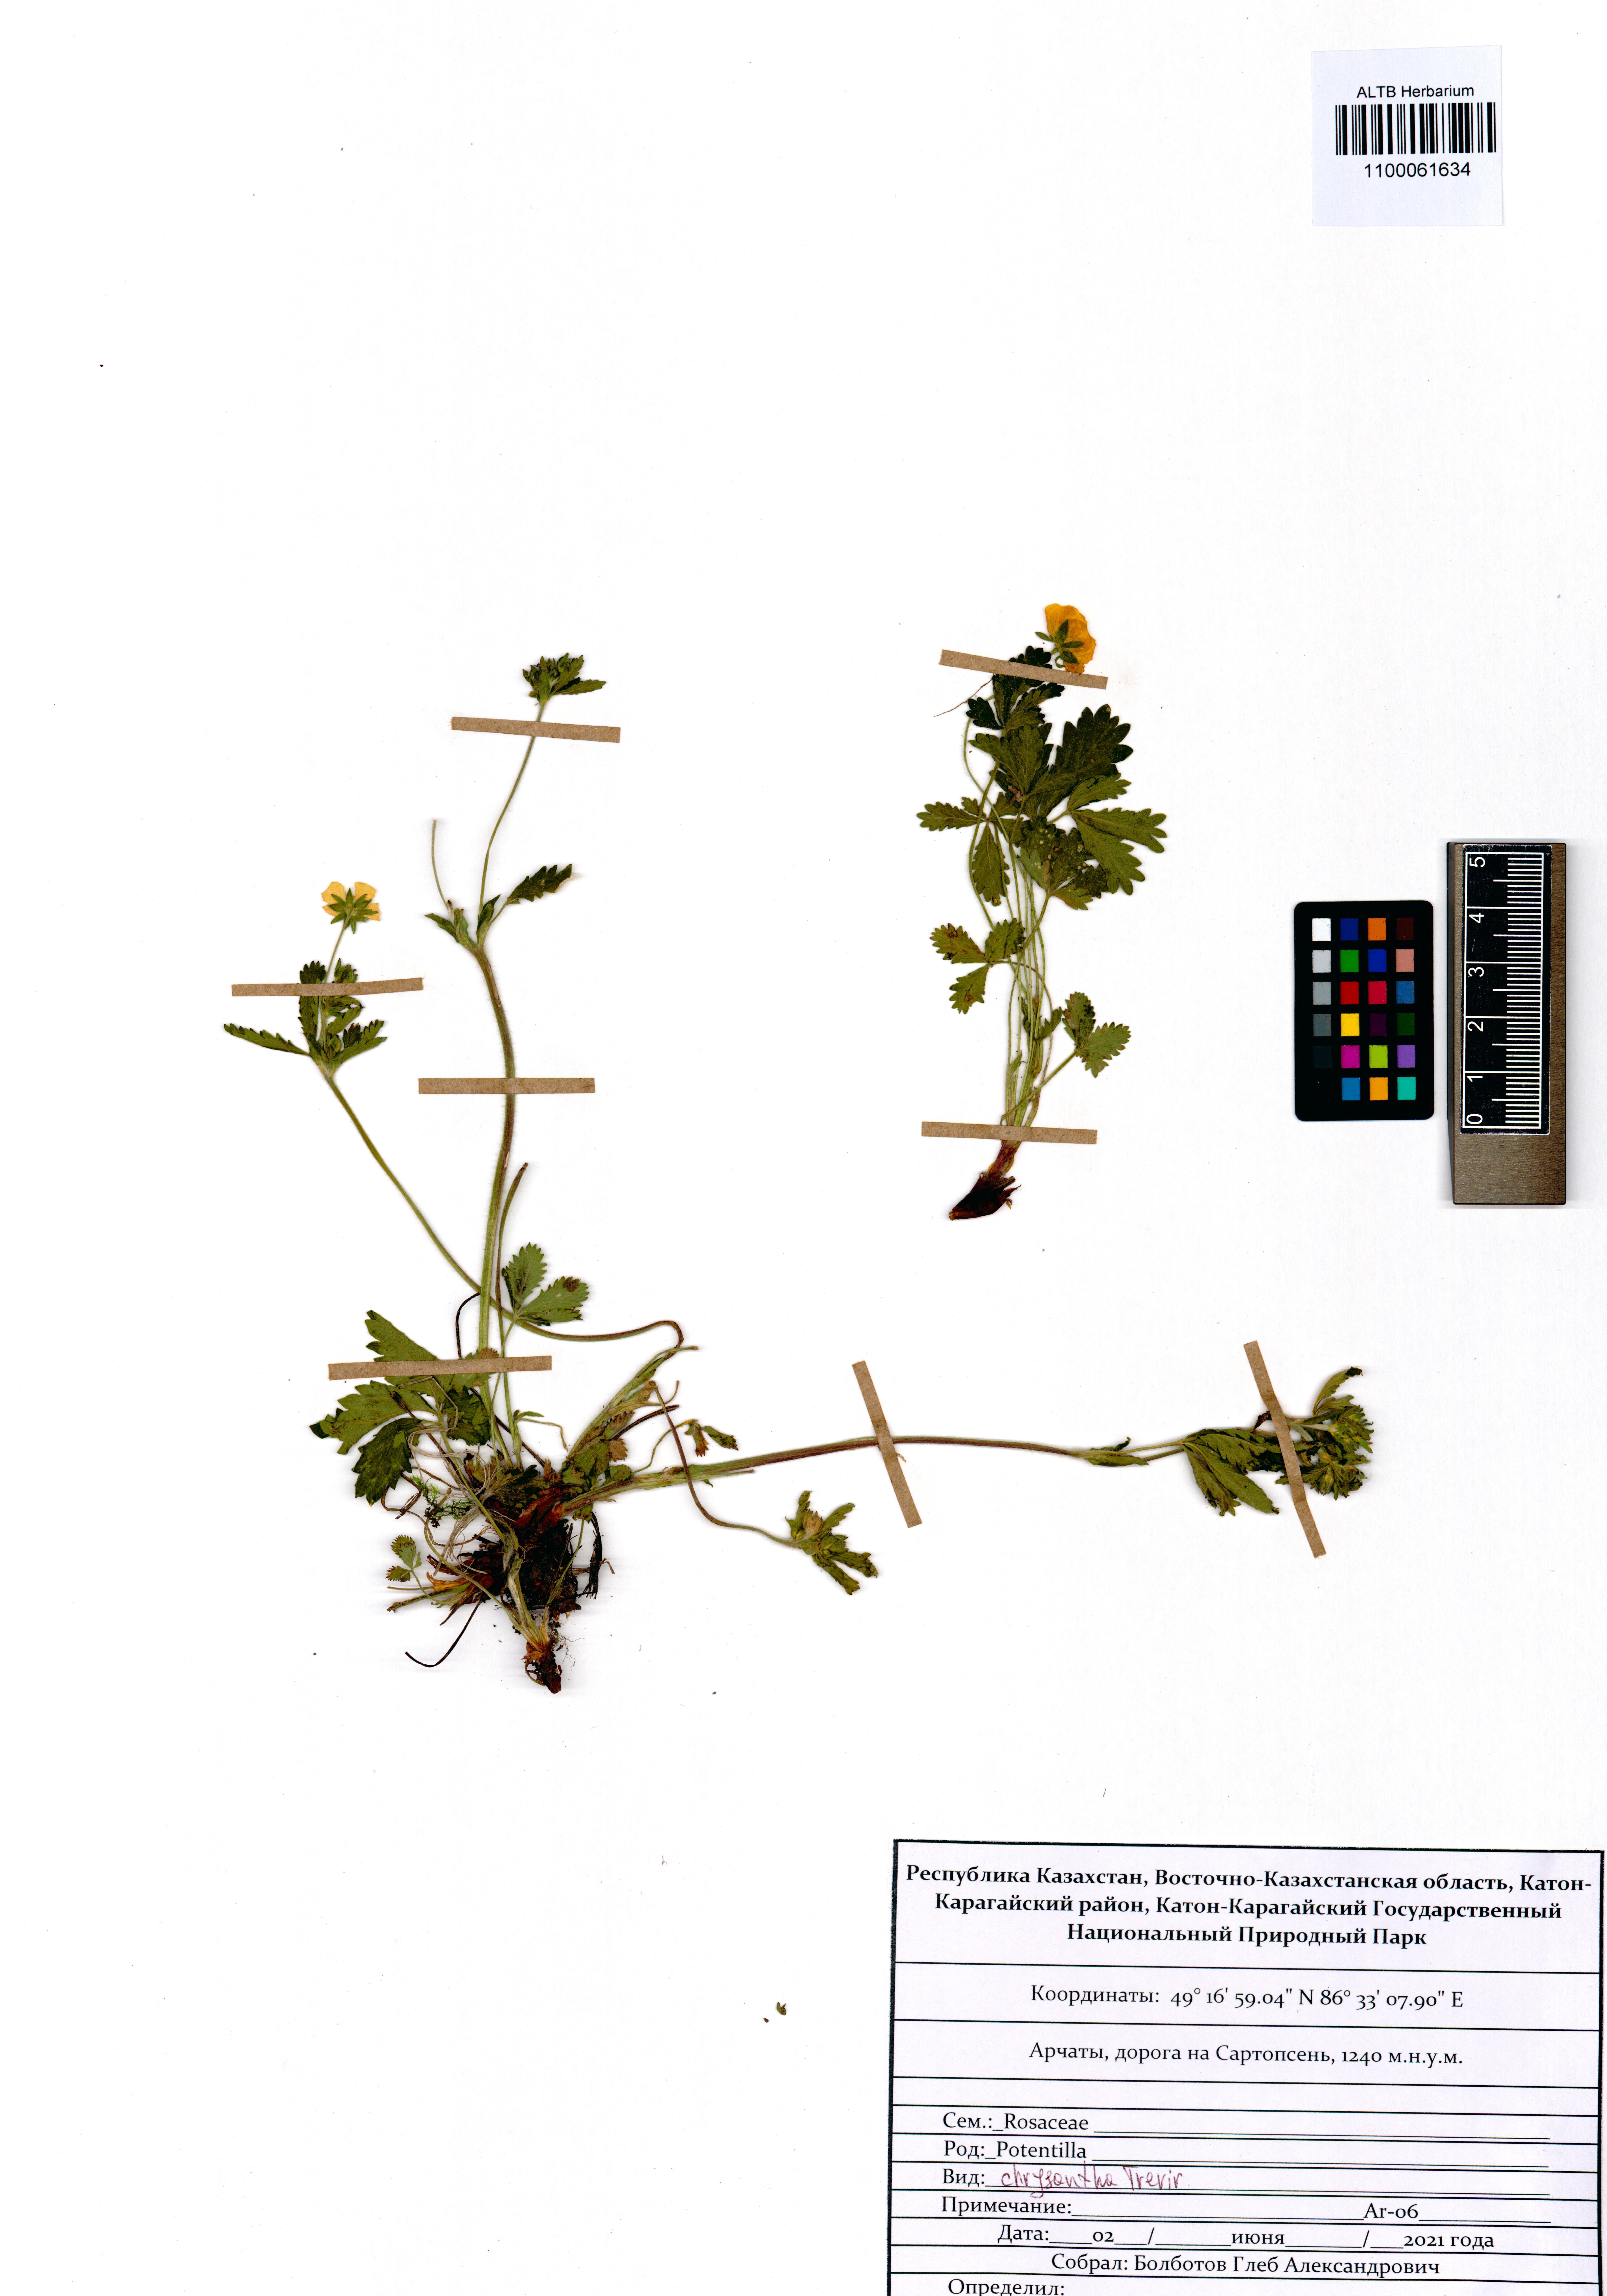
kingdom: Plantae
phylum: Tracheophyta
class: Magnoliopsida
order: Rosales
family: Rosaceae
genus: Potentilla
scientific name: Potentilla chrysantha
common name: Thuringian cinquefoil
